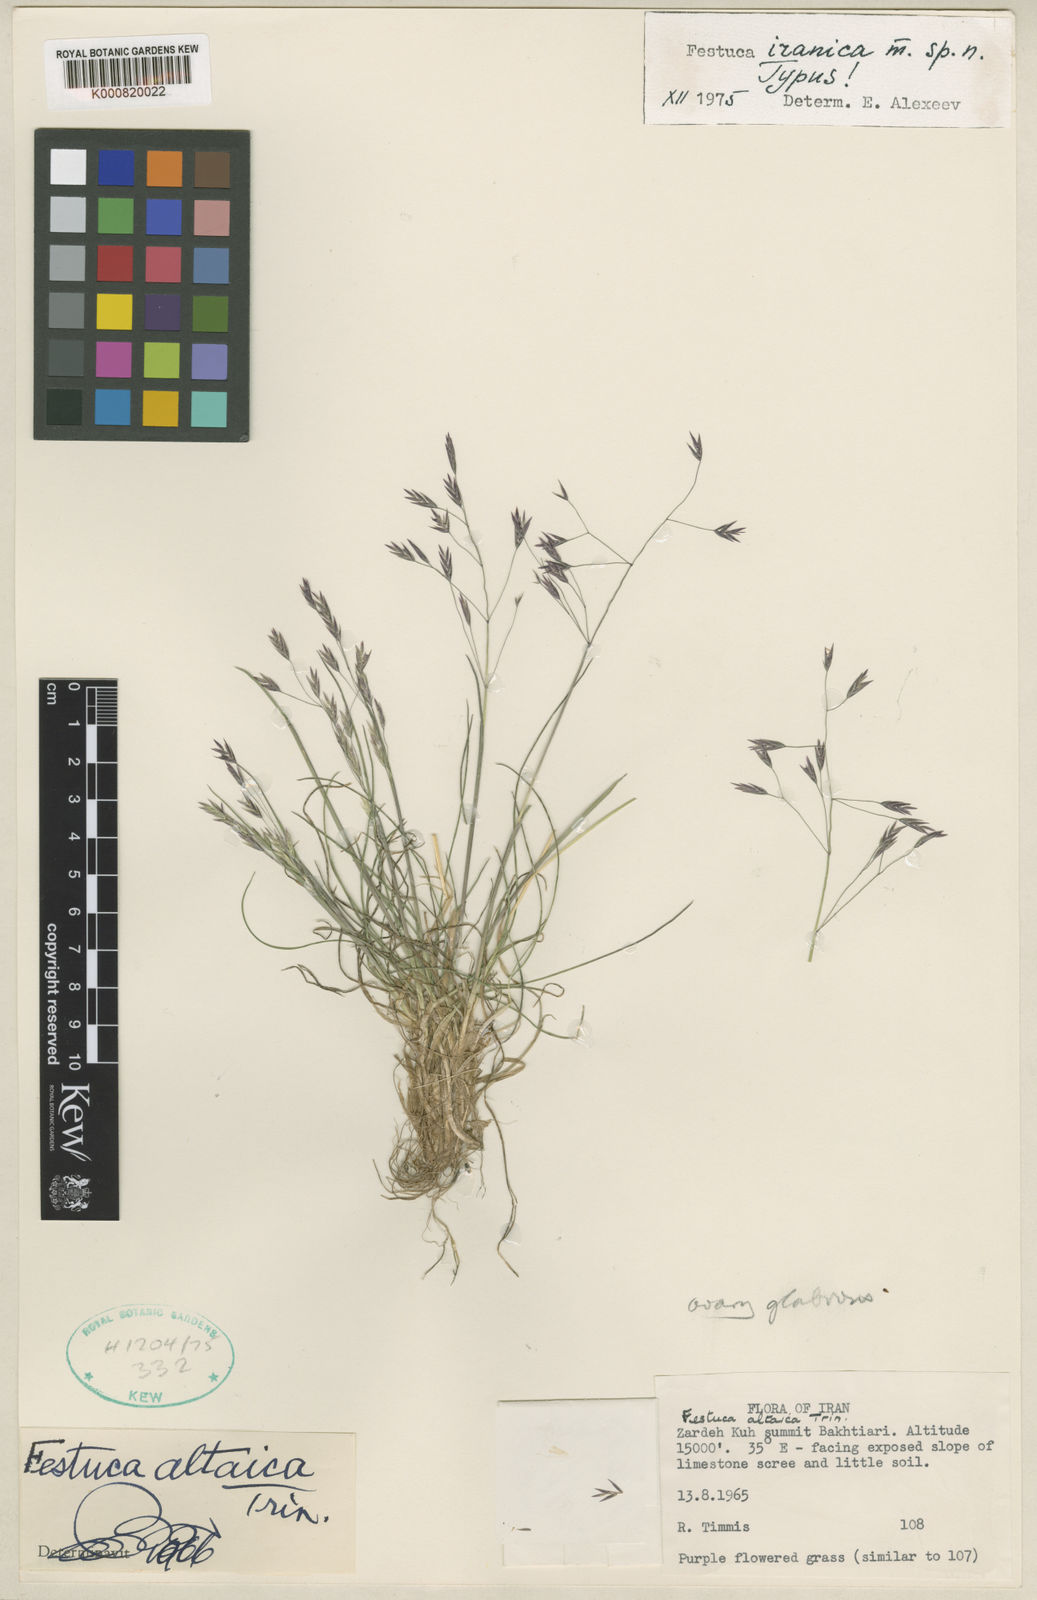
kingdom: Plantae
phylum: Tracheophyta
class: Liliopsida
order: Poales
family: Poaceae
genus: Festuca
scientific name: Festuca iranica
